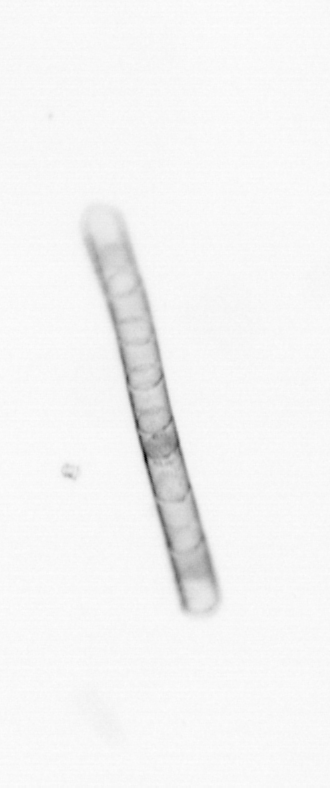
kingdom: Chromista
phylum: Ochrophyta
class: Bacillariophyceae
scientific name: Bacillariophyceae
